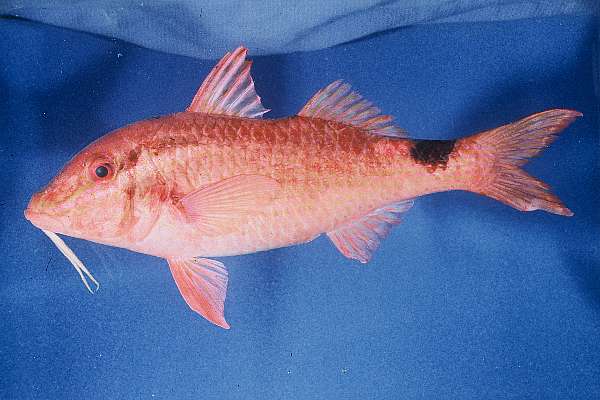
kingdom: Animalia
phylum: Chordata
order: Perciformes
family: Mullidae
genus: Parupeneus
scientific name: Parupeneus rubescens
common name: Rosy goatfish
